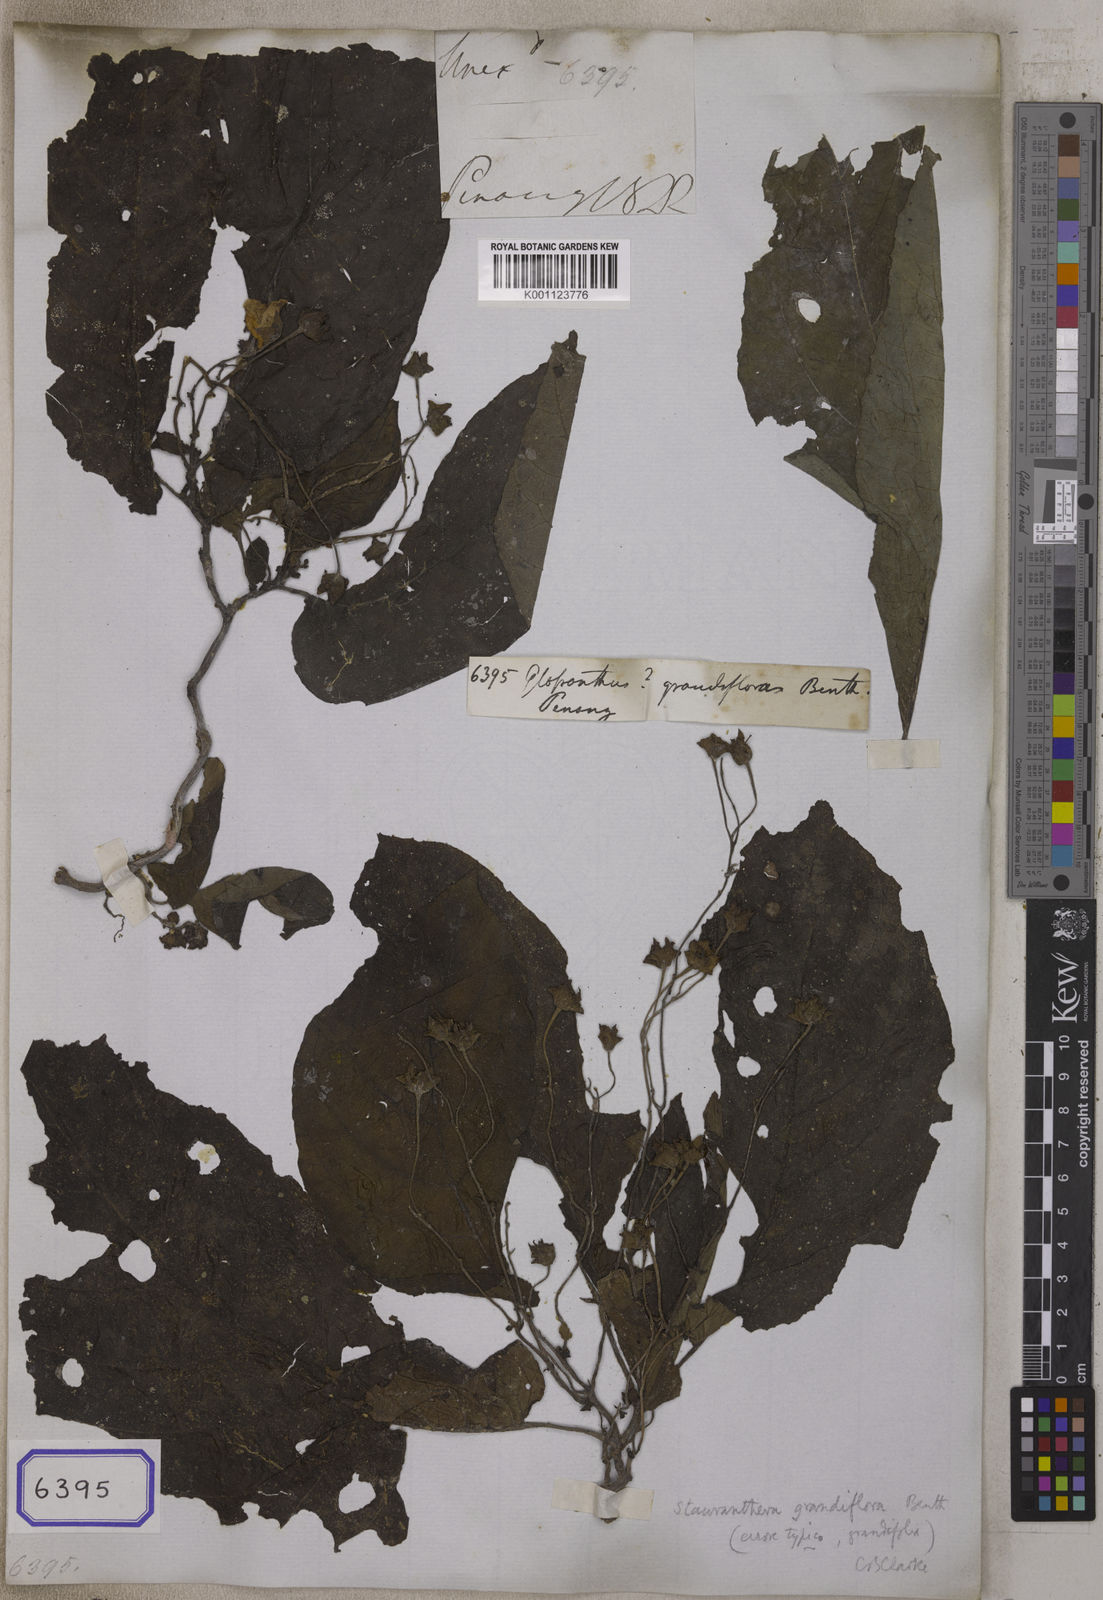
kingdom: Plantae
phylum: Tracheophyta
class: Magnoliopsida
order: Lamiales
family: Gesneriaceae
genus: Rhynchoglossum
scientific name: Rhynchoglossum azureum
